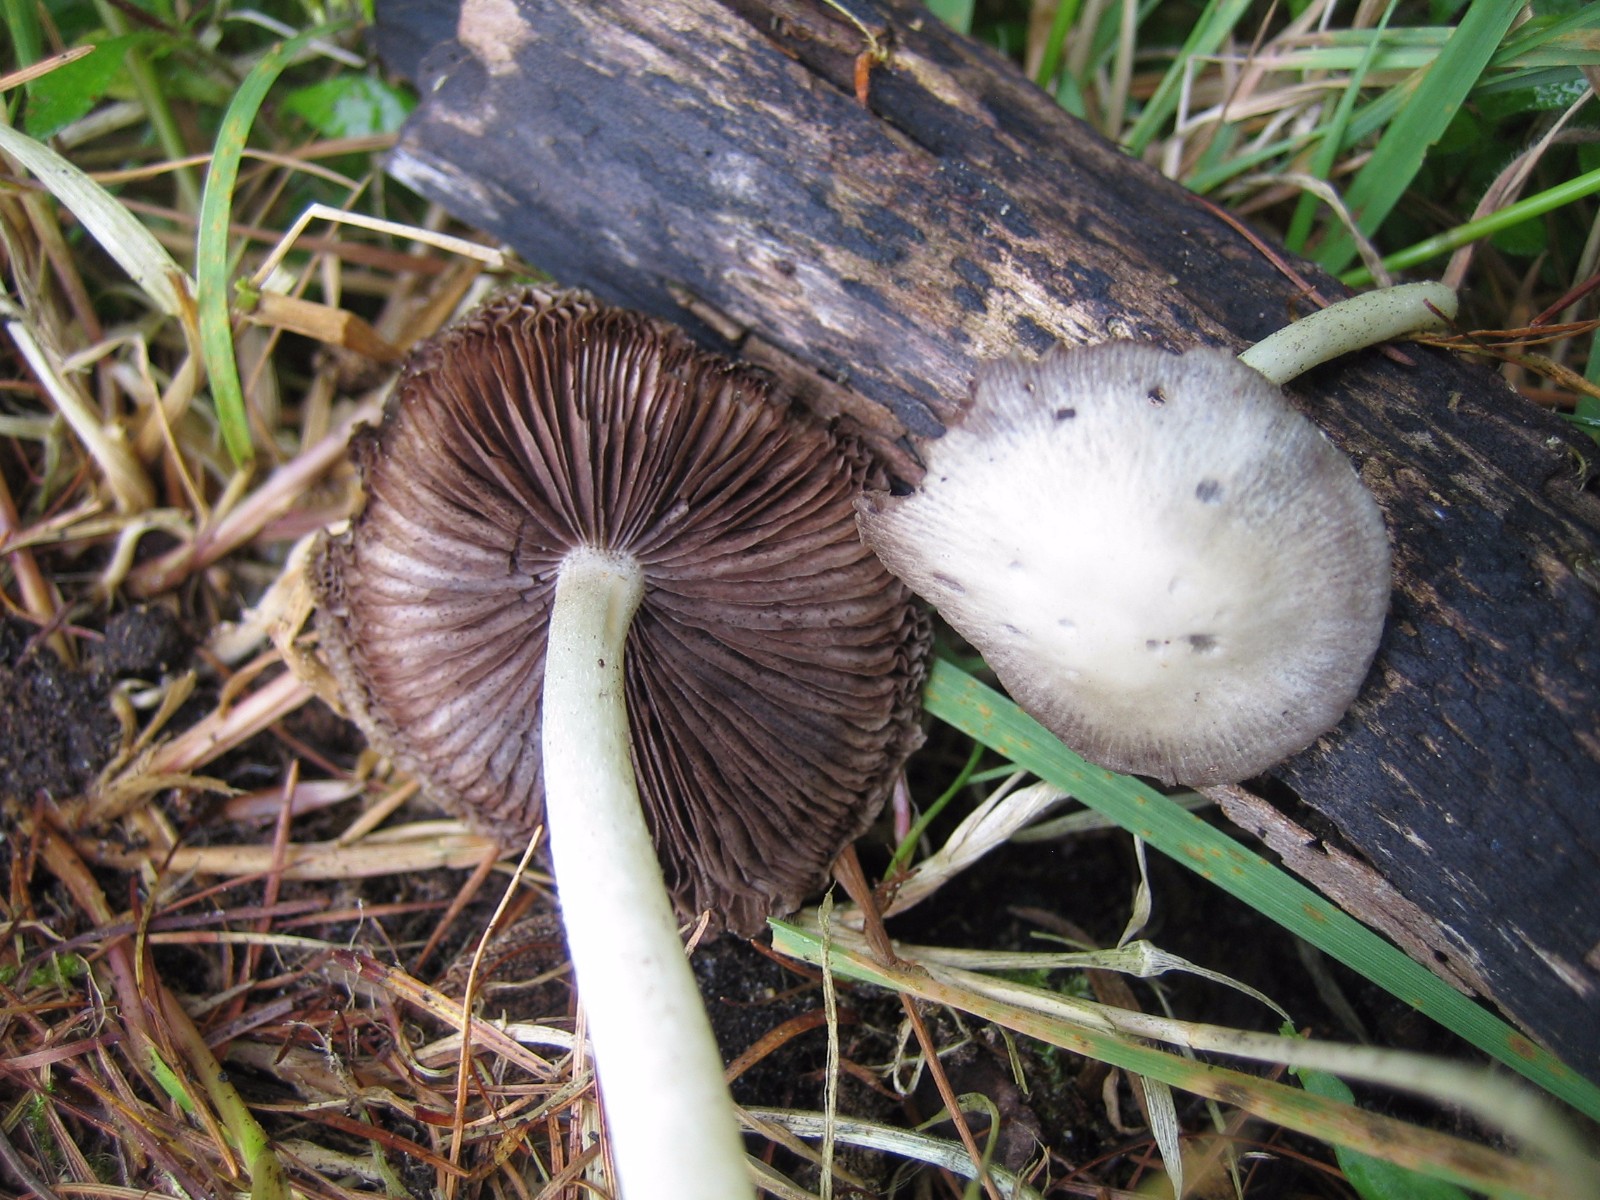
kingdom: Fungi
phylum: Basidiomycota
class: Agaricomycetes
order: Agaricales
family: Psathyrellaceae
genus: Psathyrella
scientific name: Psathyrella
